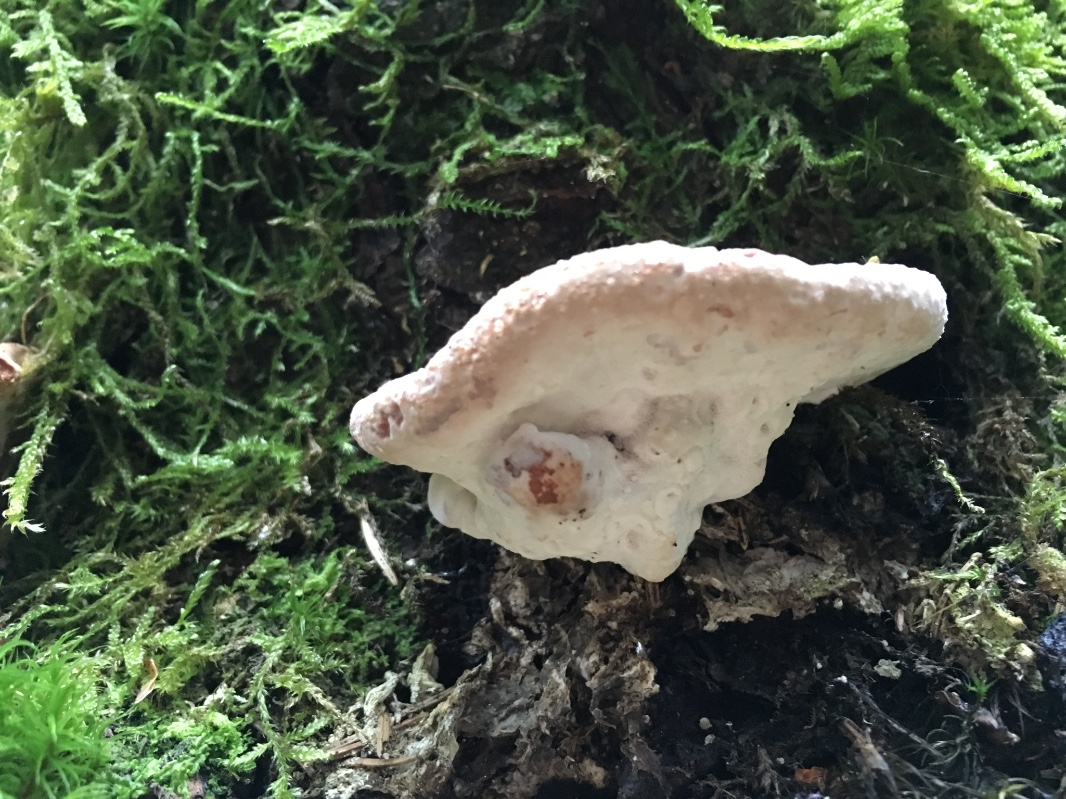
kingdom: Fungi
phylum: Basidiomycota
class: Agaricomycetes
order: Polyporales
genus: Calcipostia
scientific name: Calcipostia guttulata
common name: dråbe-kødporesvamp
